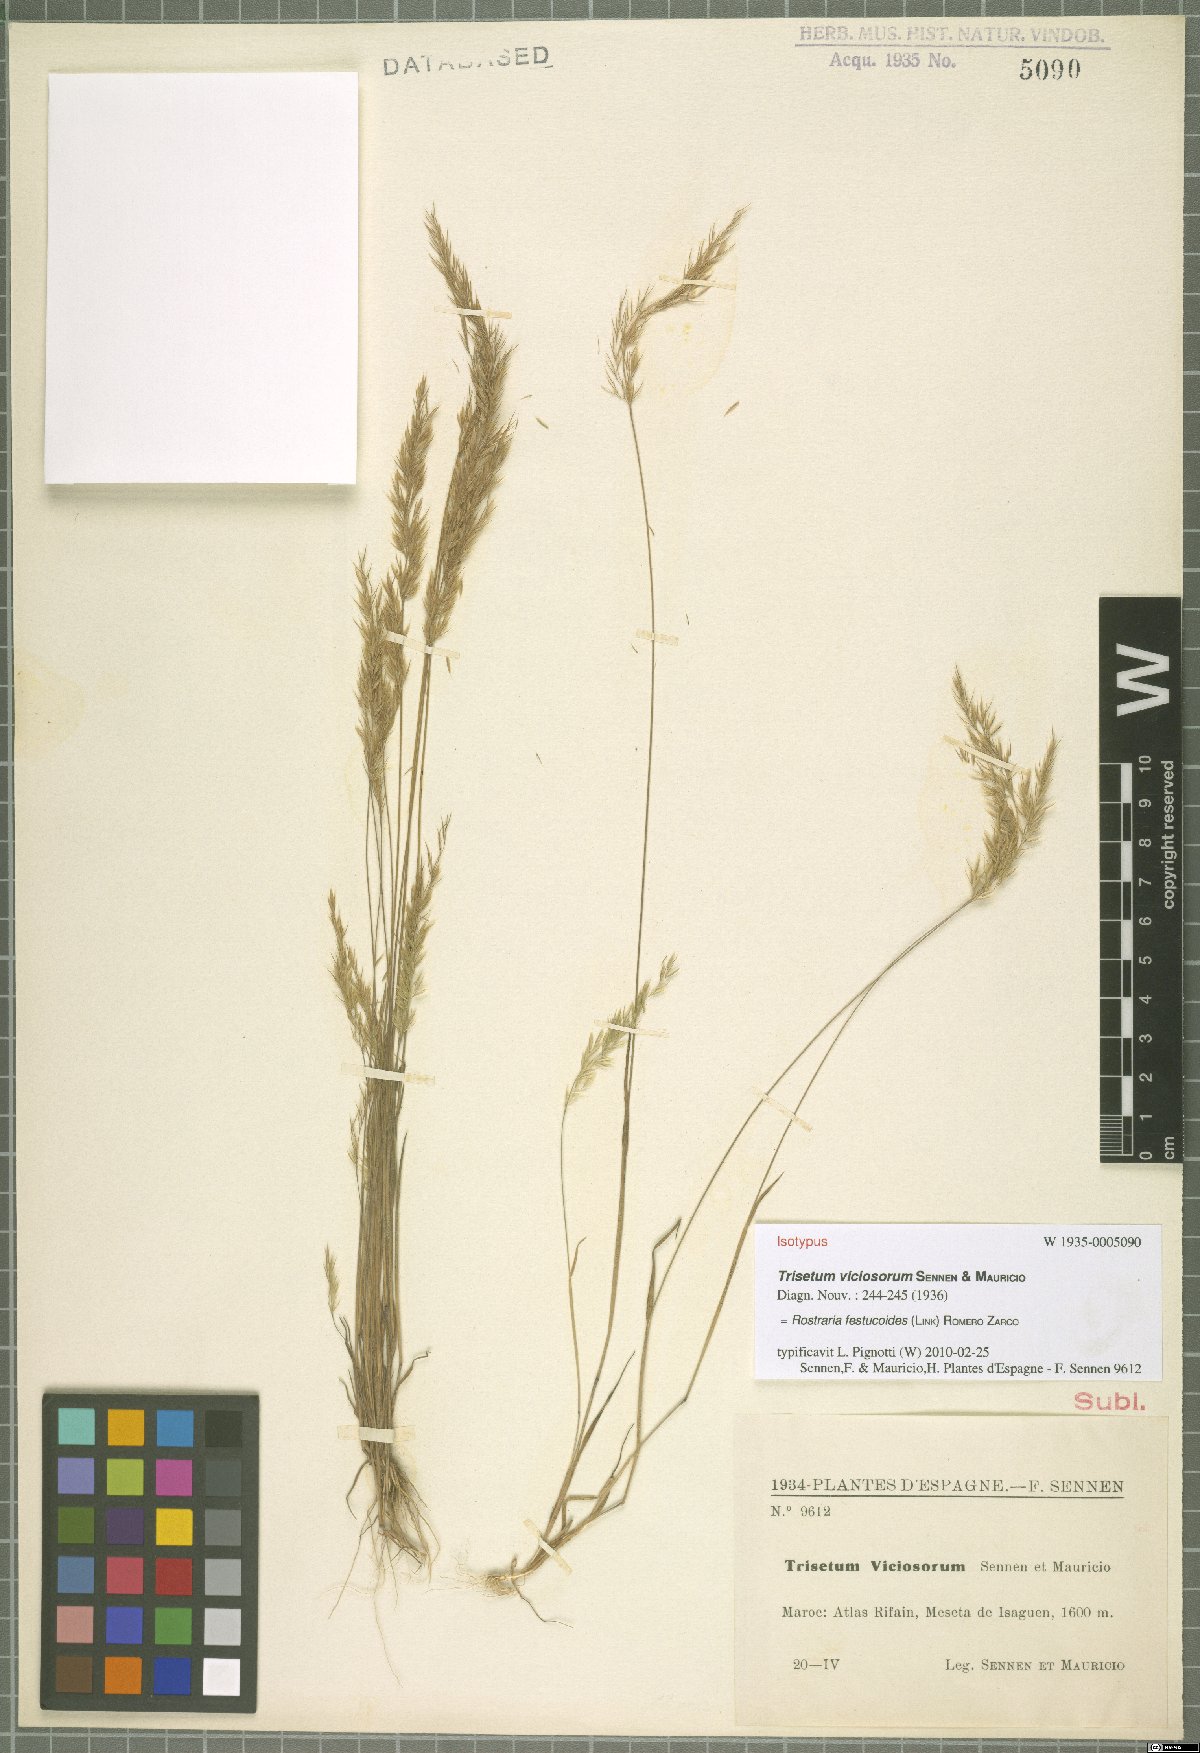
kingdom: Plantae
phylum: Tracheophyta
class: Liliopsida
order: Poales
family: Poaceae
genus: Avellinia
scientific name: Avellinia festucoides
